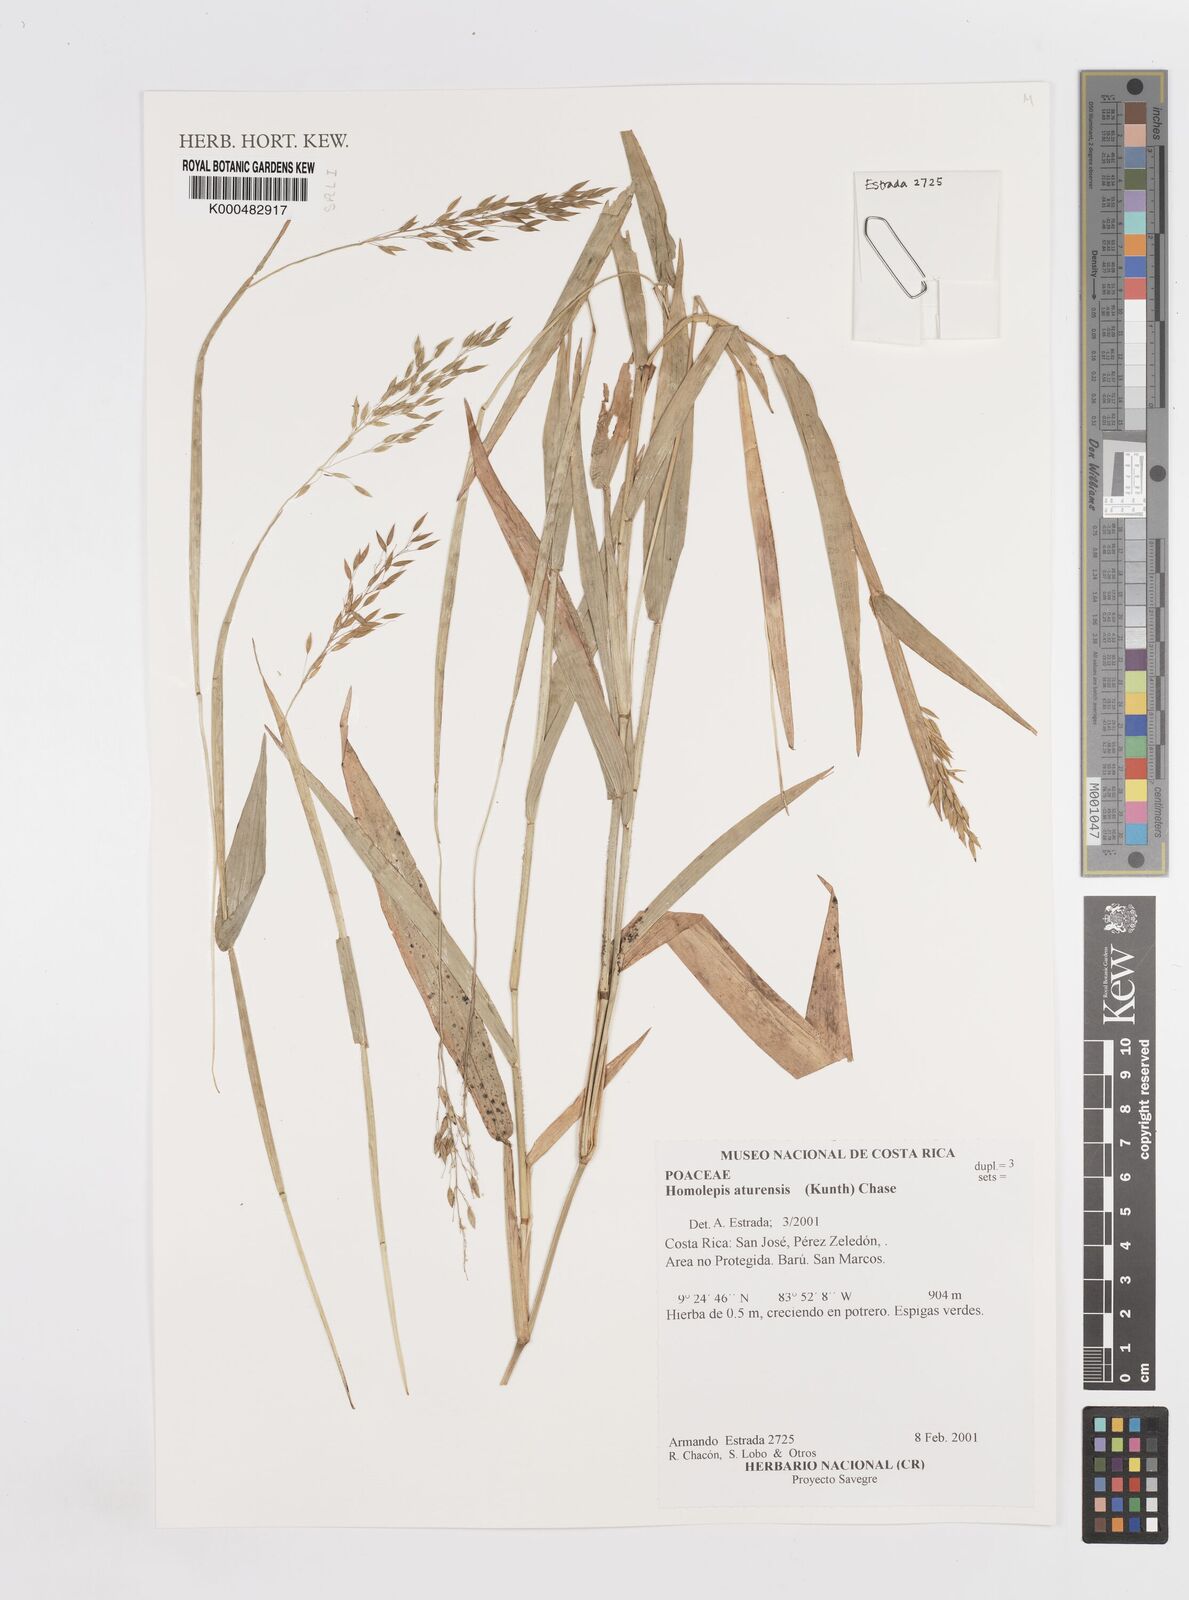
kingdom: Plantae
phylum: Tracheophyta
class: Liliopsida
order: Poales
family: Poaceae
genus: Homolepis
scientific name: Homolepis aturensis
